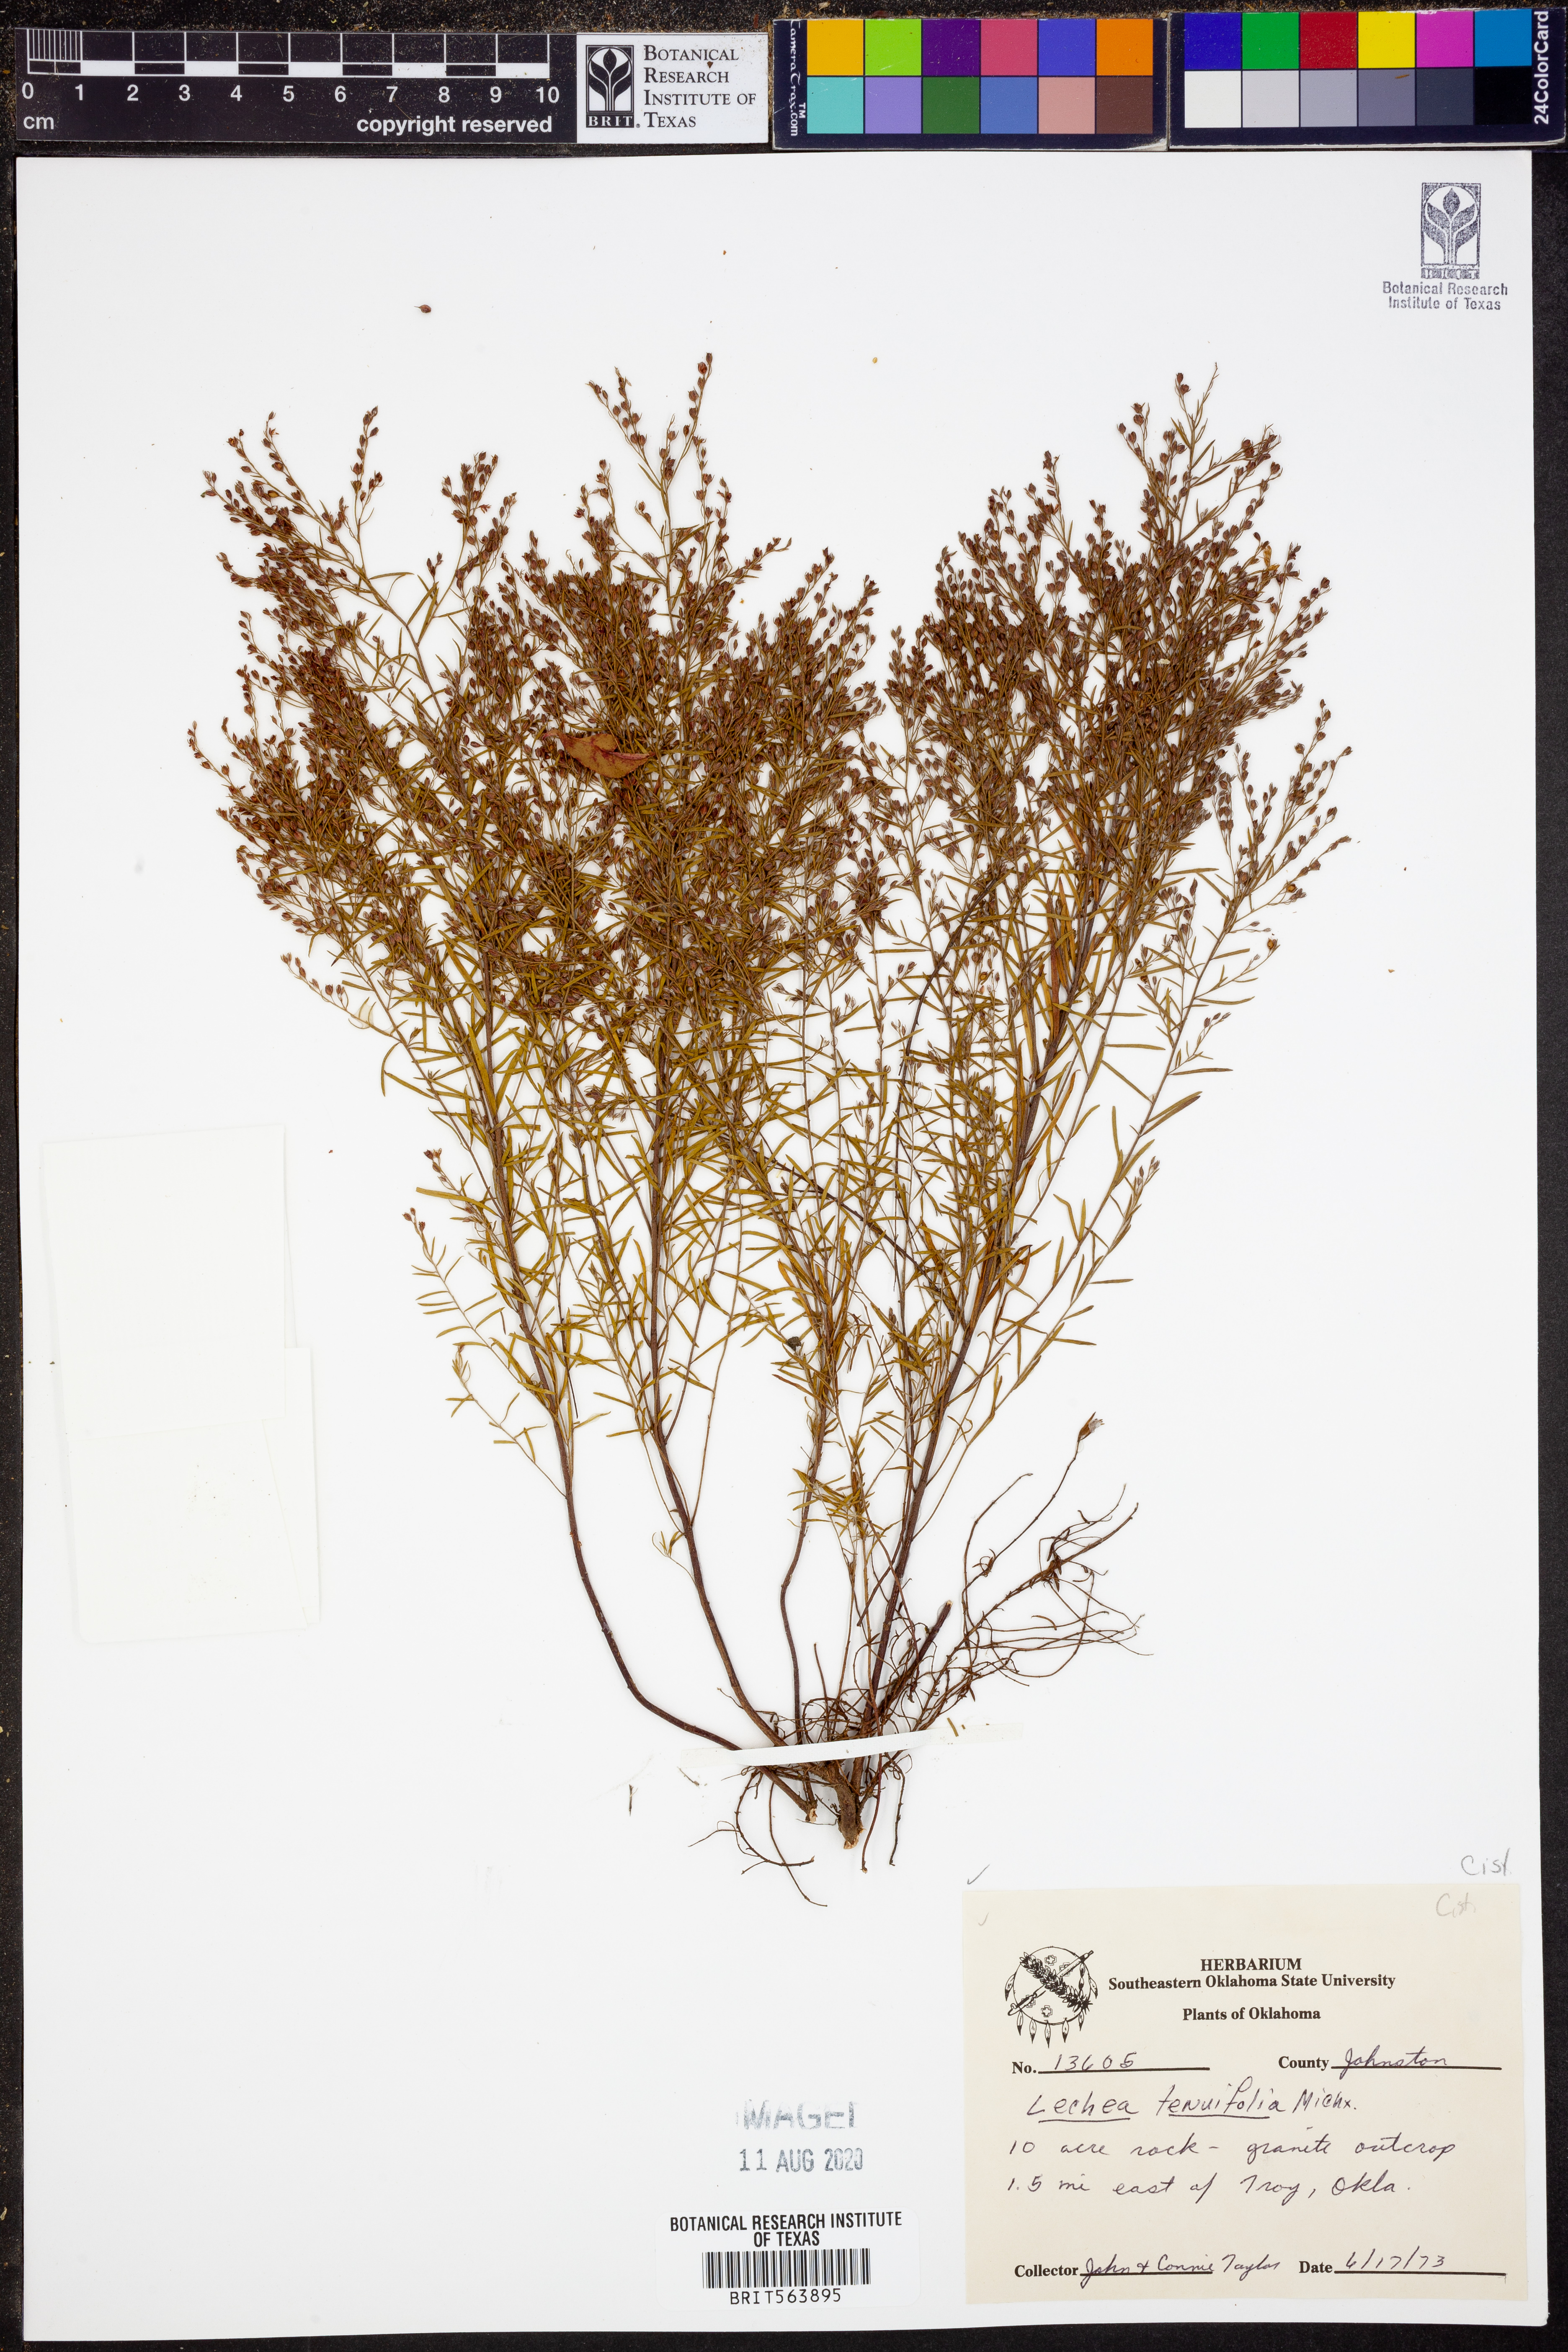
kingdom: Plantae
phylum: Tracheophyta
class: Magnoliopsida
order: Malvales
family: Cistaceae
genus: Lechea
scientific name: Lechea tenuifolia
